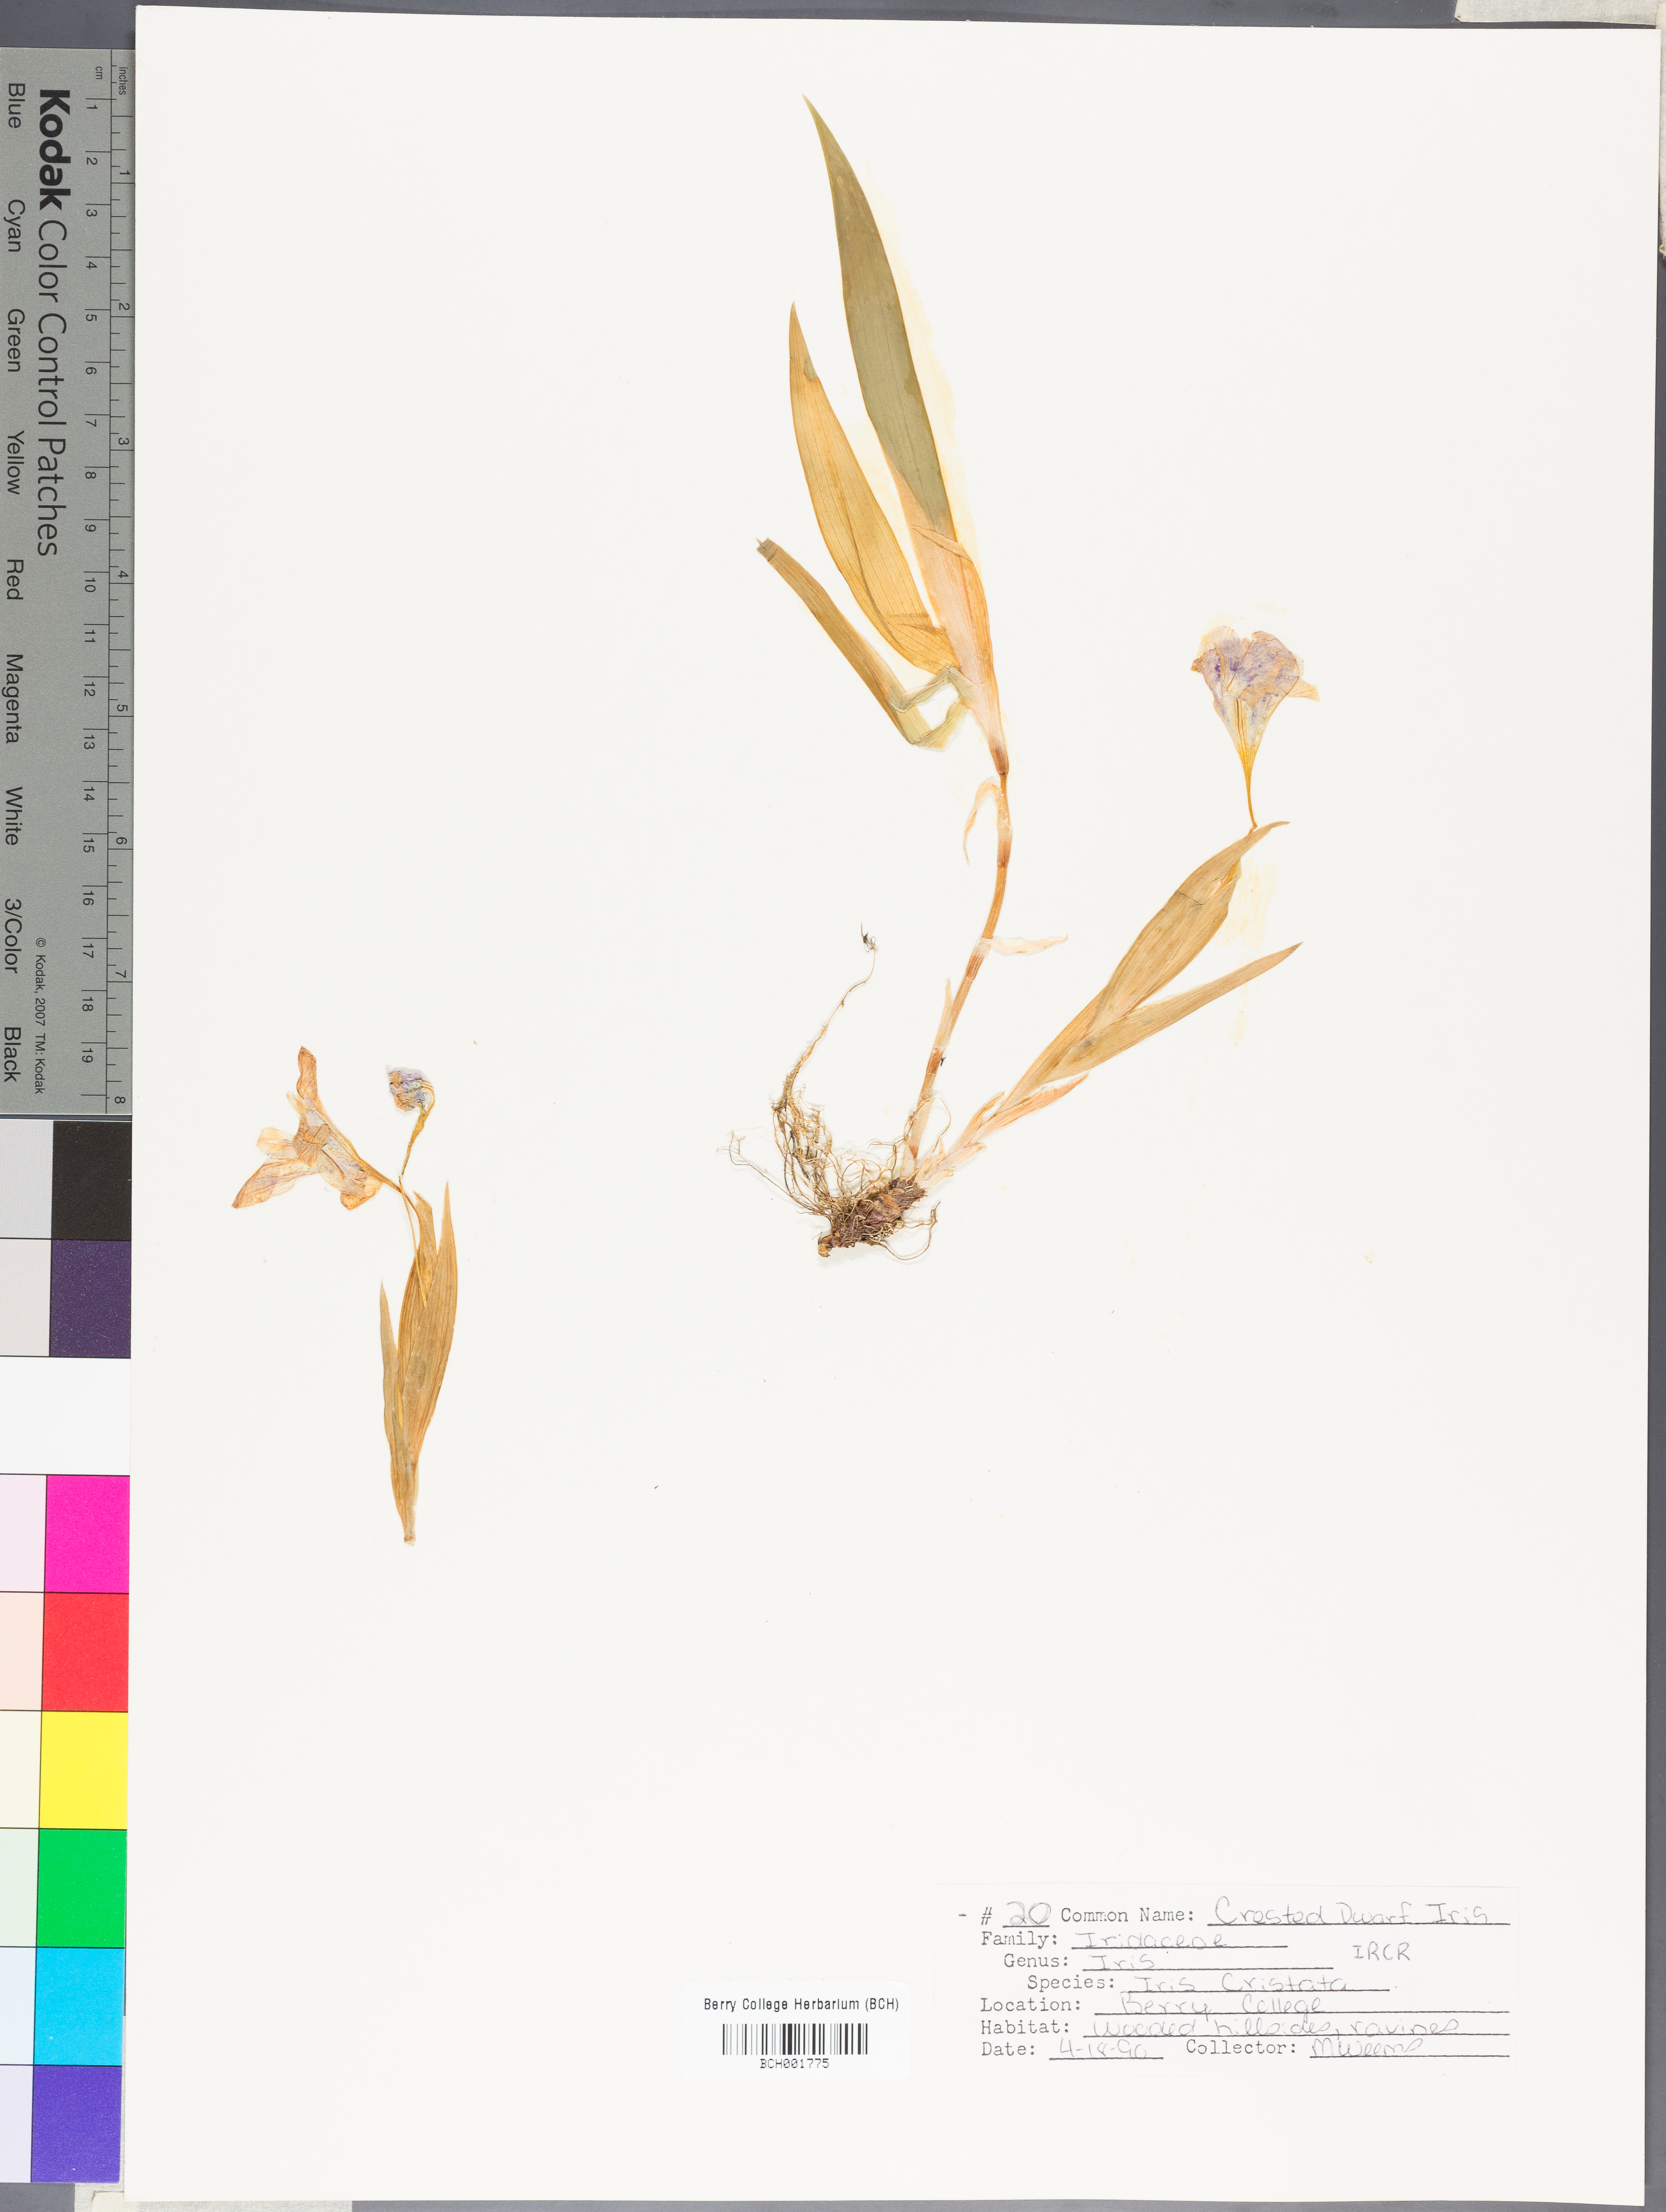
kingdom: Plantae
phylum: Tracheophyta
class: Liliopsida
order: Asparagales
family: Iridaceae
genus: Iris
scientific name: Iris cristata
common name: Crested iris
